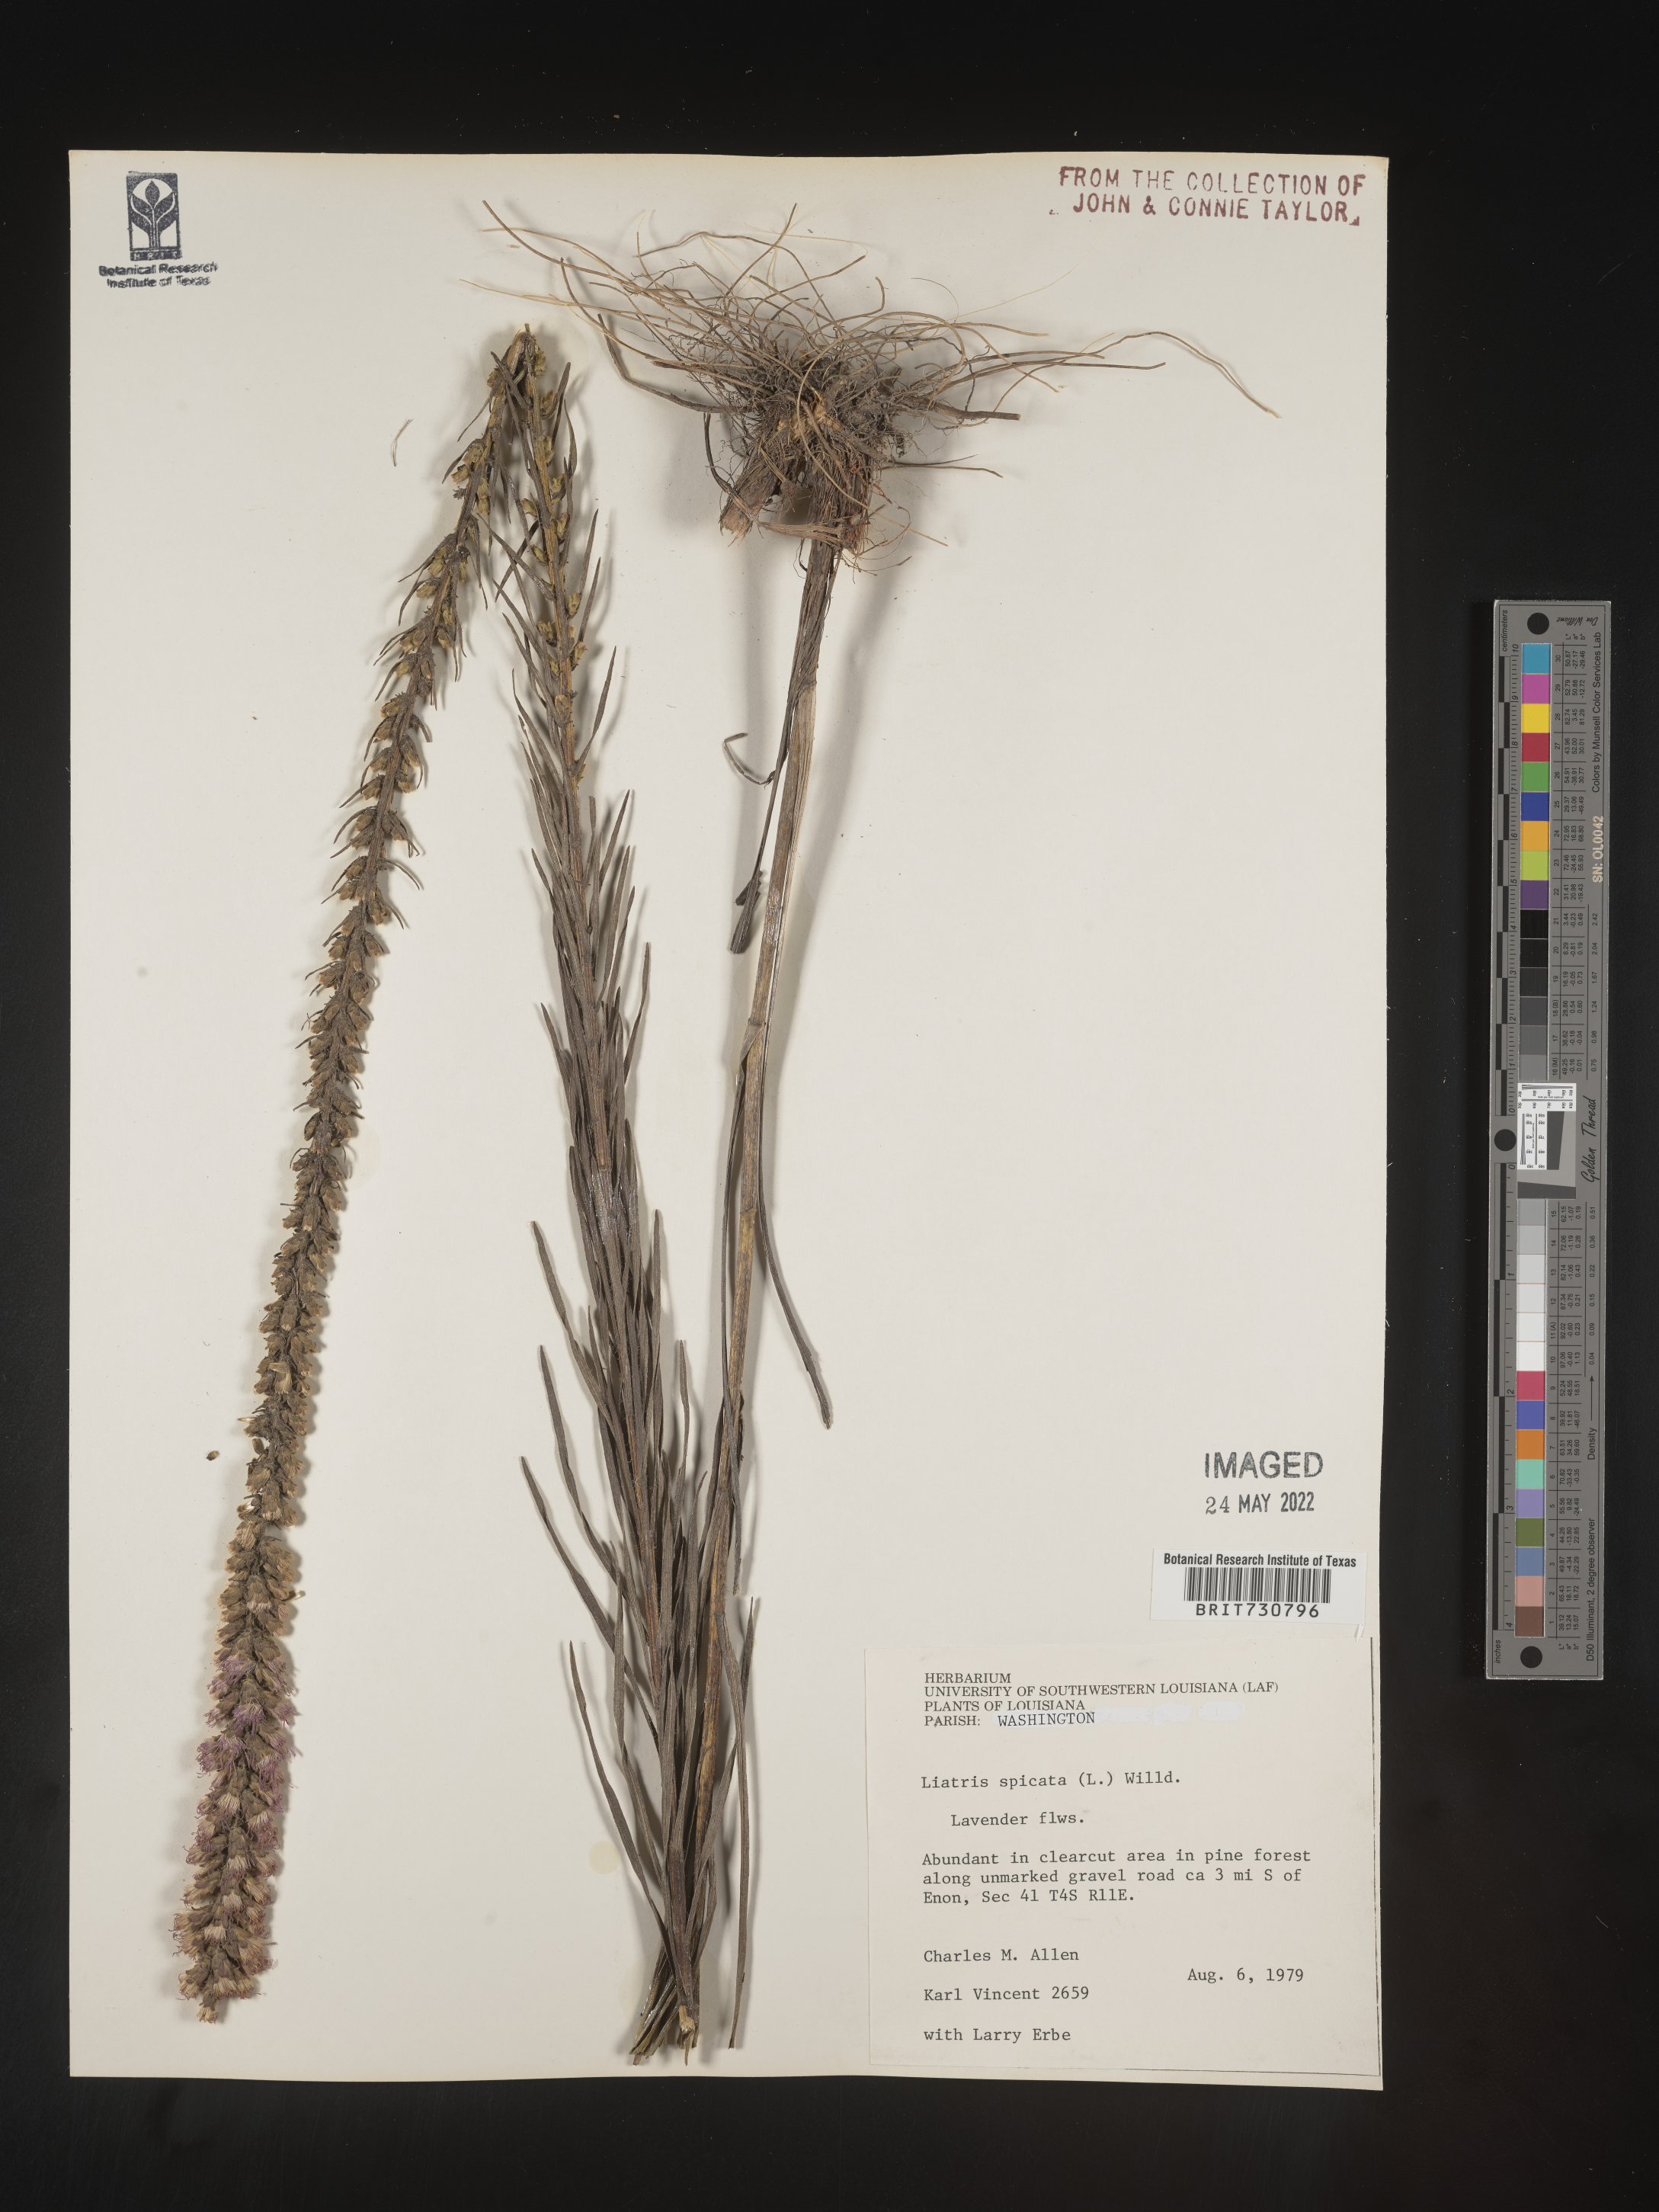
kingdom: Plantae
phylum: Tracheophyta
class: Magnoliopsida
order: Asterales
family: Asteraceae
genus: Liatris
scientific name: Liatris pycnostachya
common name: Cattail gayfeather
